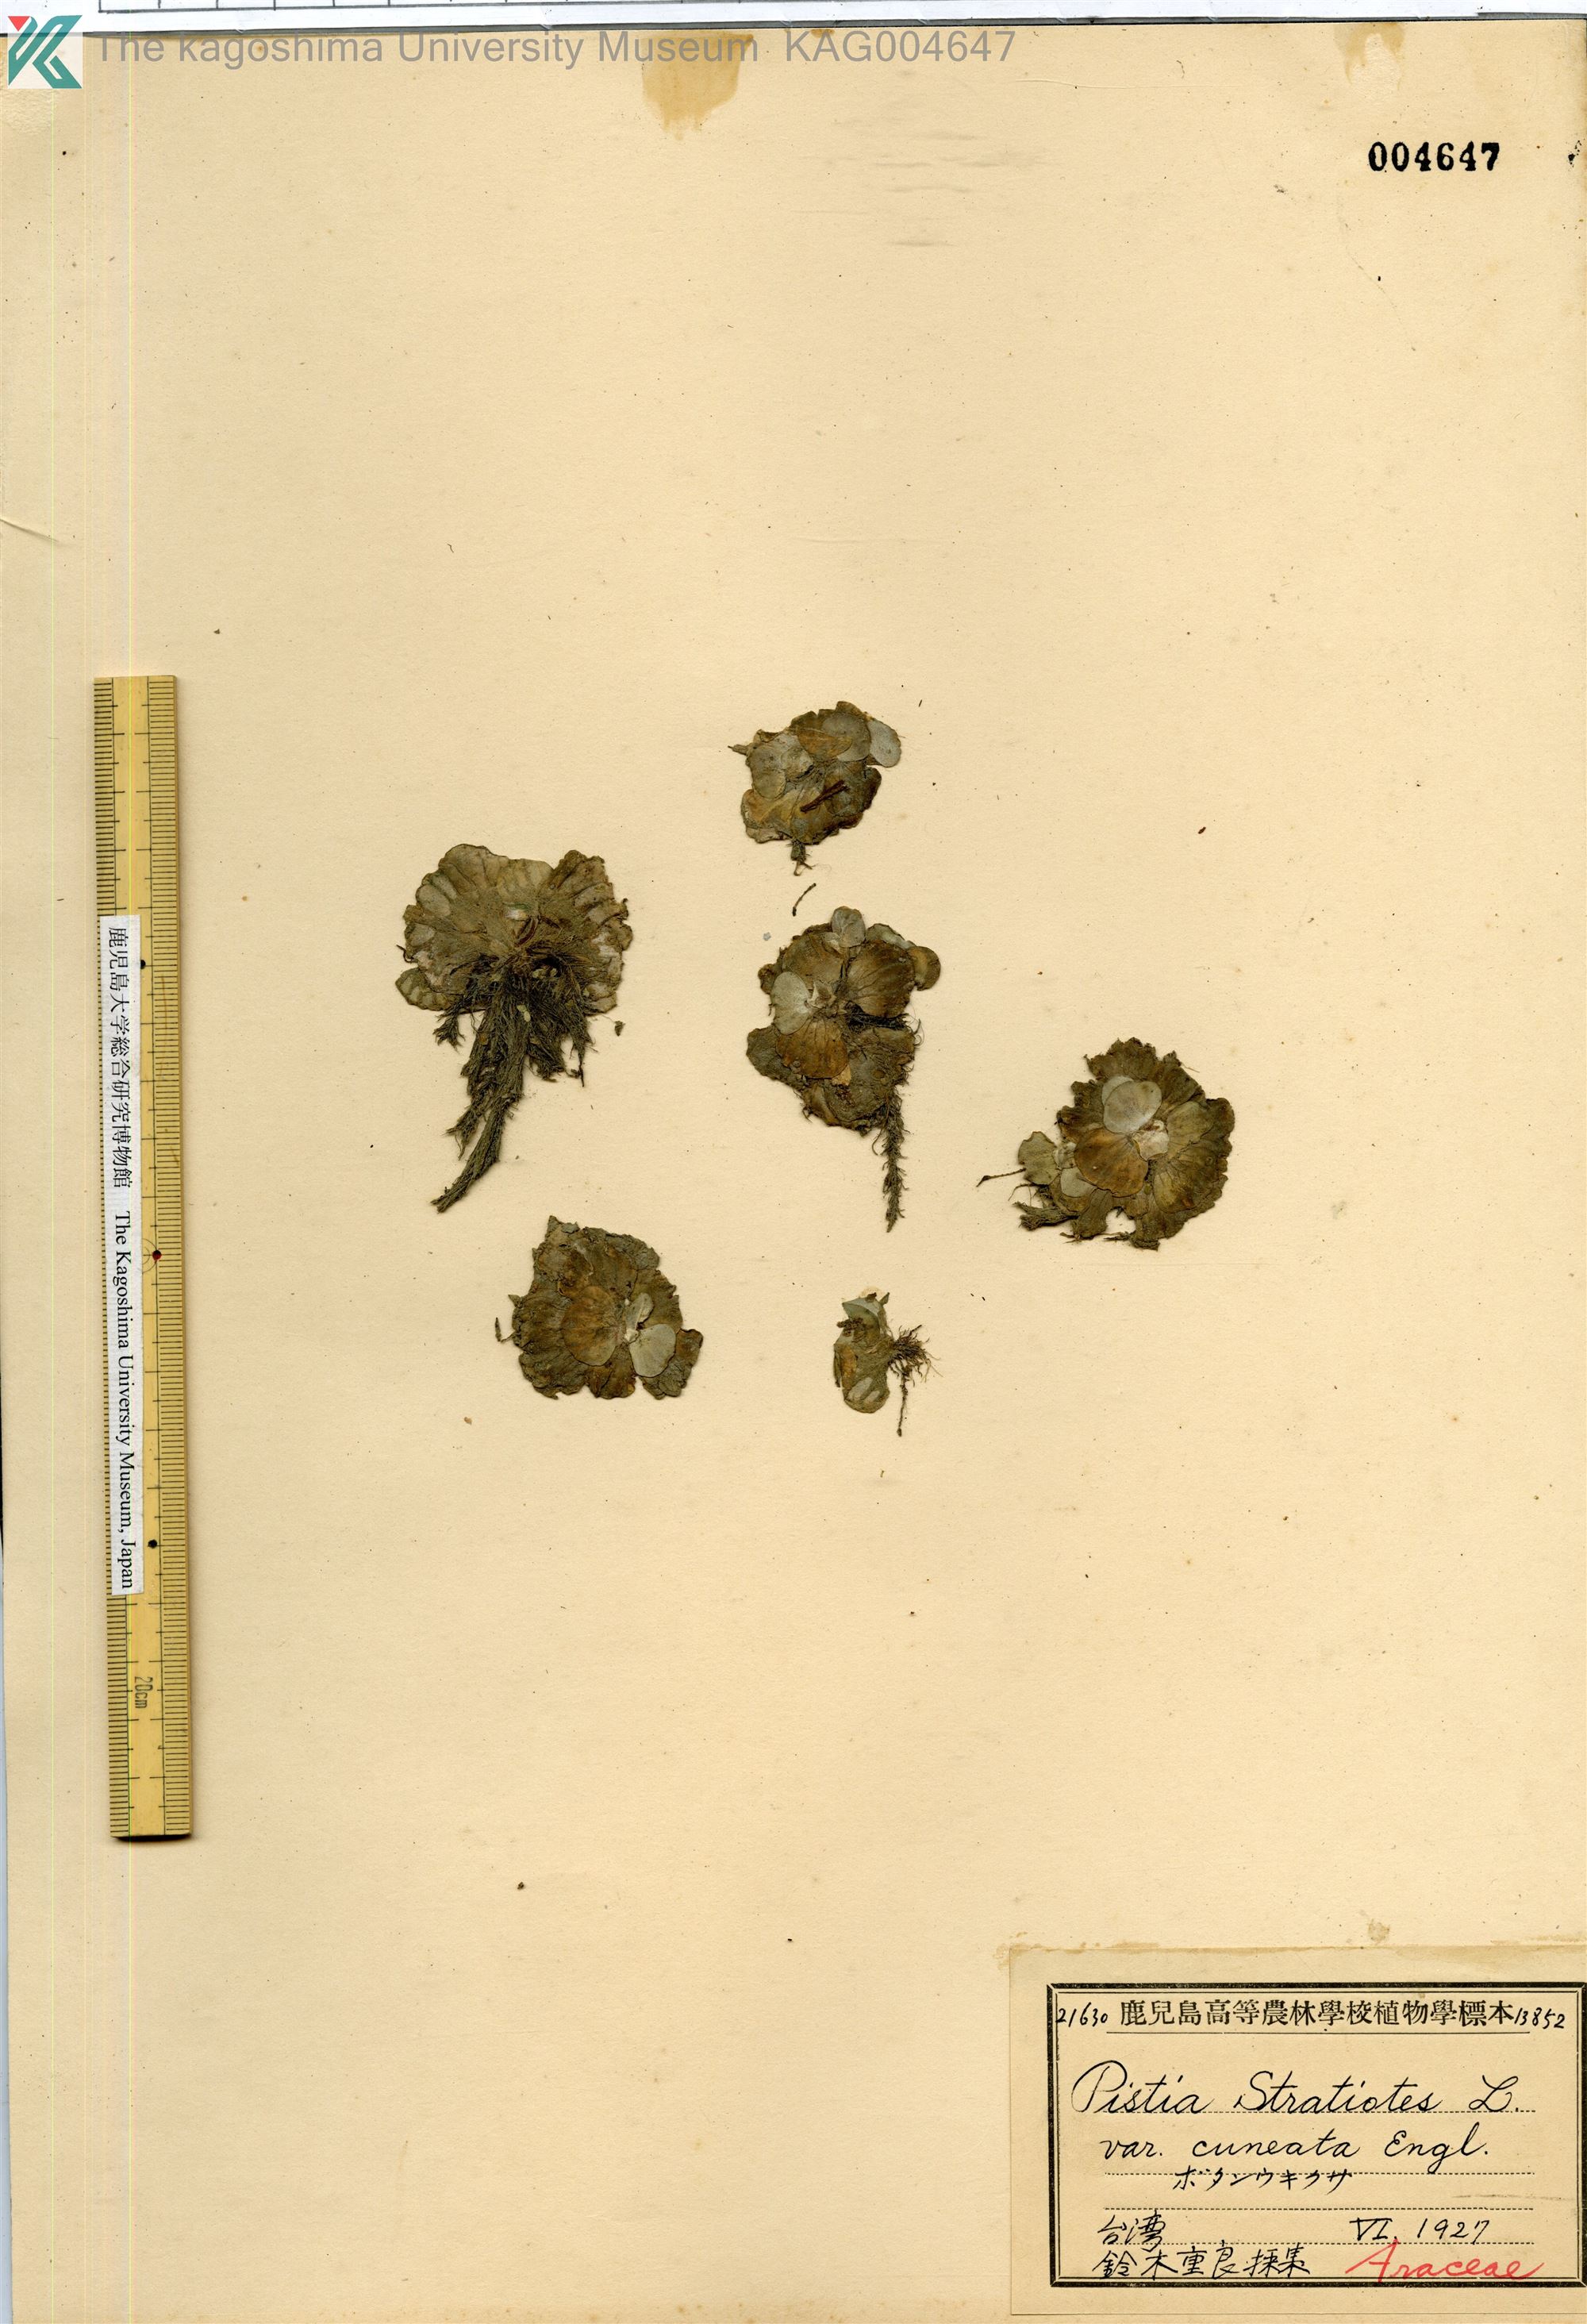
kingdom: Plantae
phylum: Tracheophyta
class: Liliopsida
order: Alismatales
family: Araceae
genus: Pistia
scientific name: Pistia stratiotes
